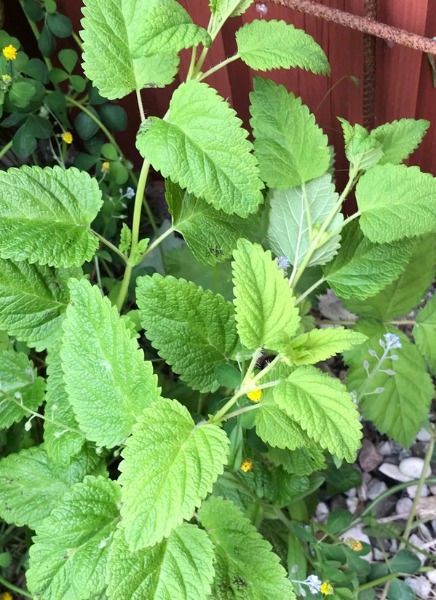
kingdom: Plantae
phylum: Tracheophyta
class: Magnoliopsida
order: Lamiales
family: Lamiaceae
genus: Melissa
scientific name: Melissa officinalis
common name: Citronmelisse
